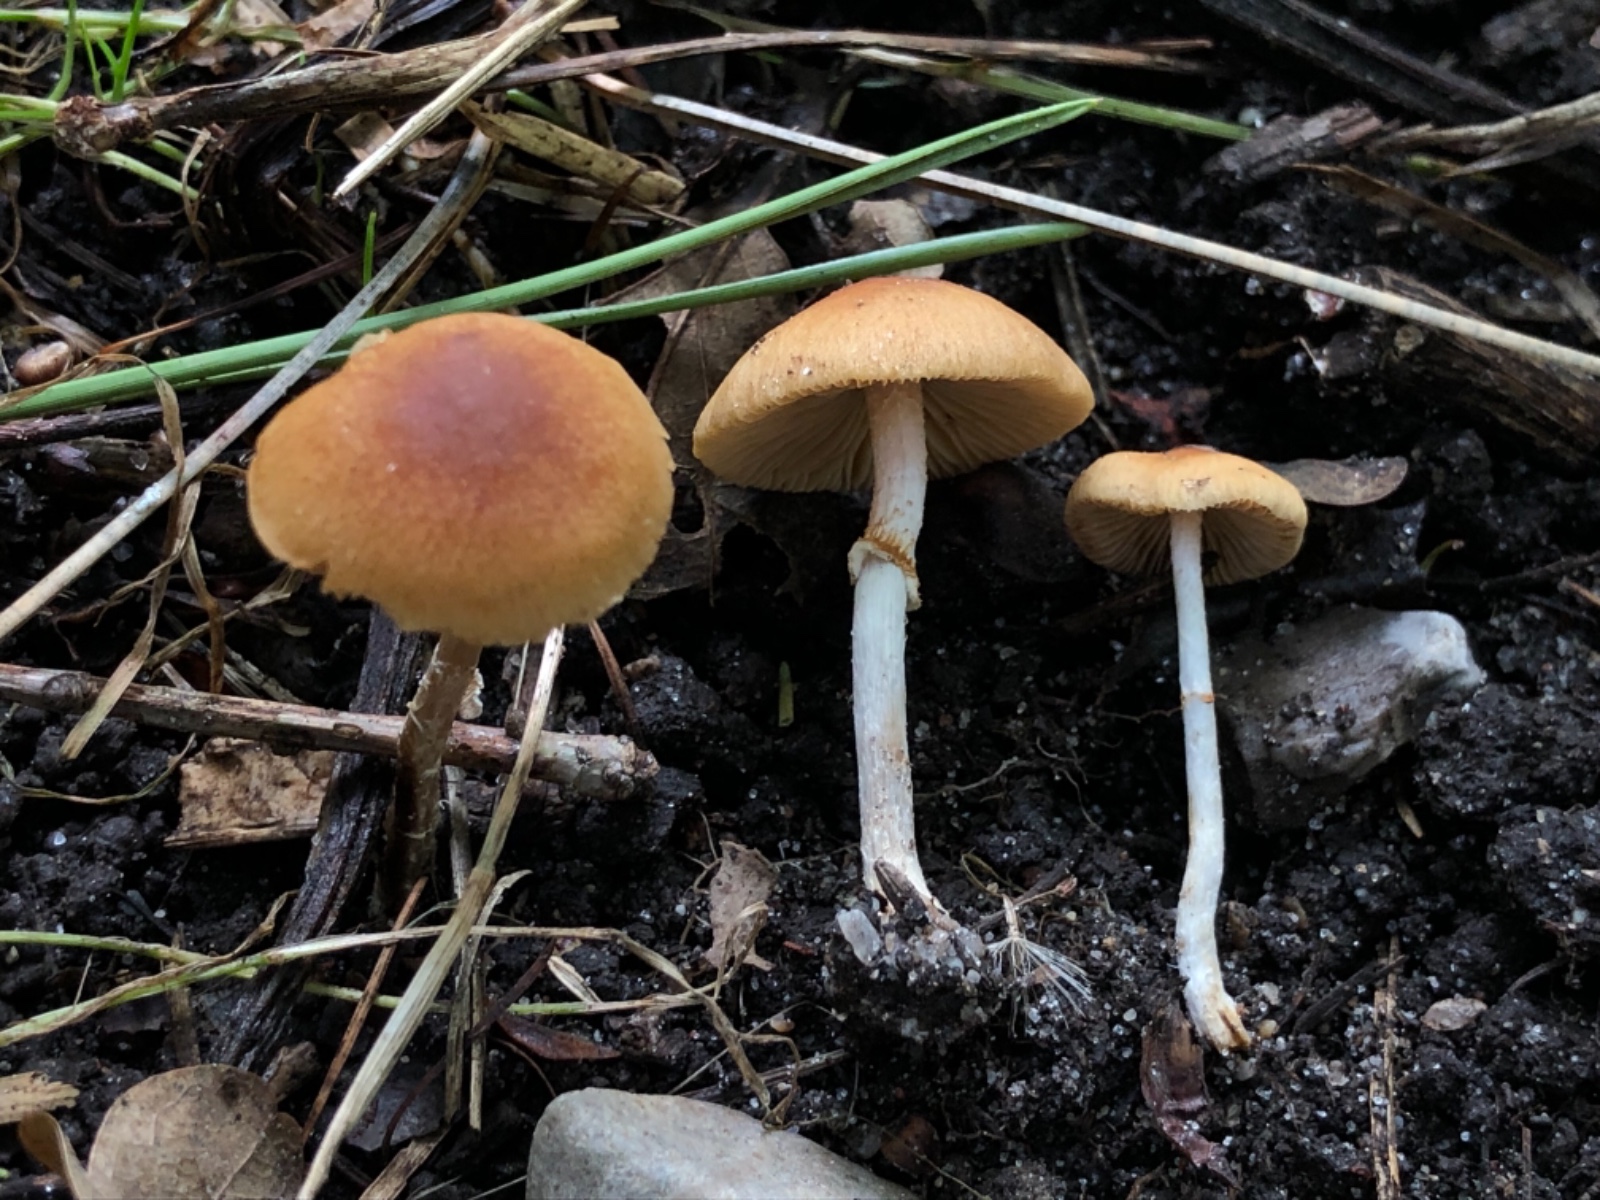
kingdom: Fungi
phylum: Basidiomycota
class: Agaricomycetes
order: Agaricales
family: Bolbitiaceae
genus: Conocybe
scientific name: Conocybe arrhenii
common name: ring-dansehat
